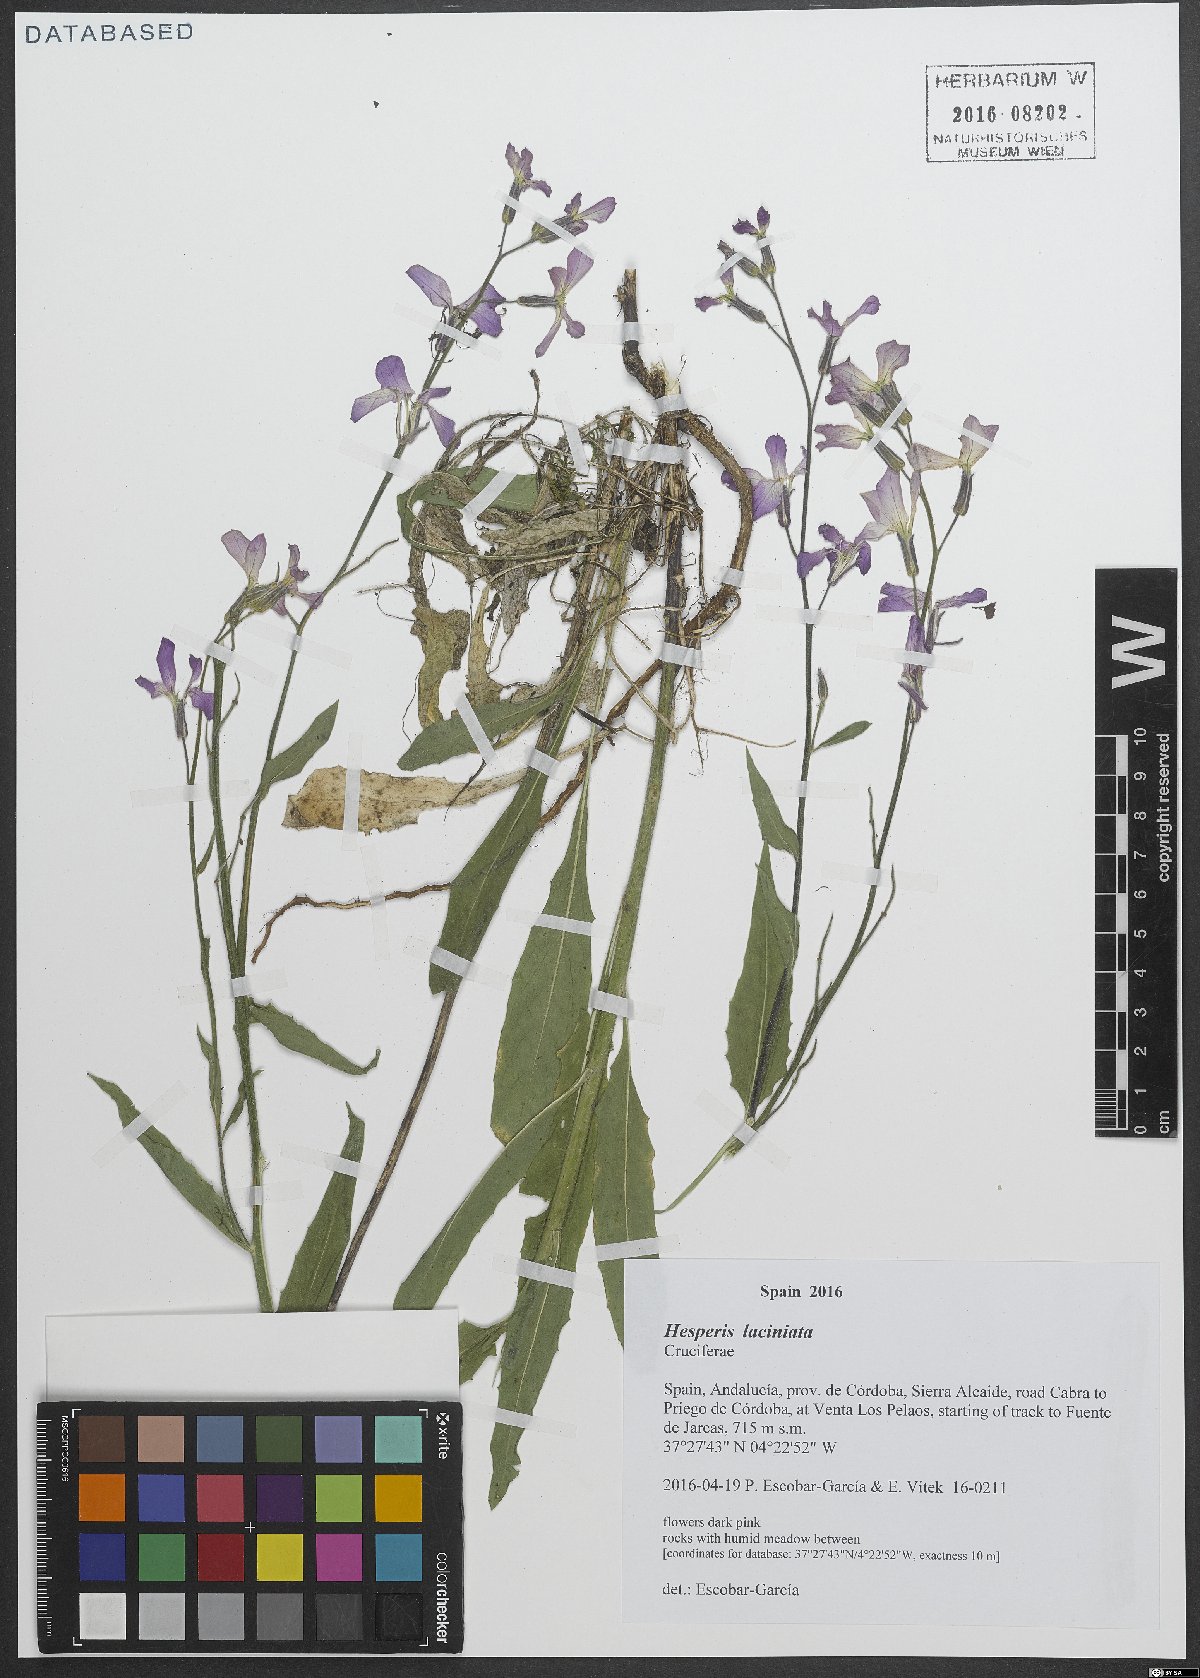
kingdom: Plantae
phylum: Tracheophyta
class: Magnoliopsida
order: Brassicales
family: Brassicaceae
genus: Hesperis
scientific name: Hesperis laciniata
